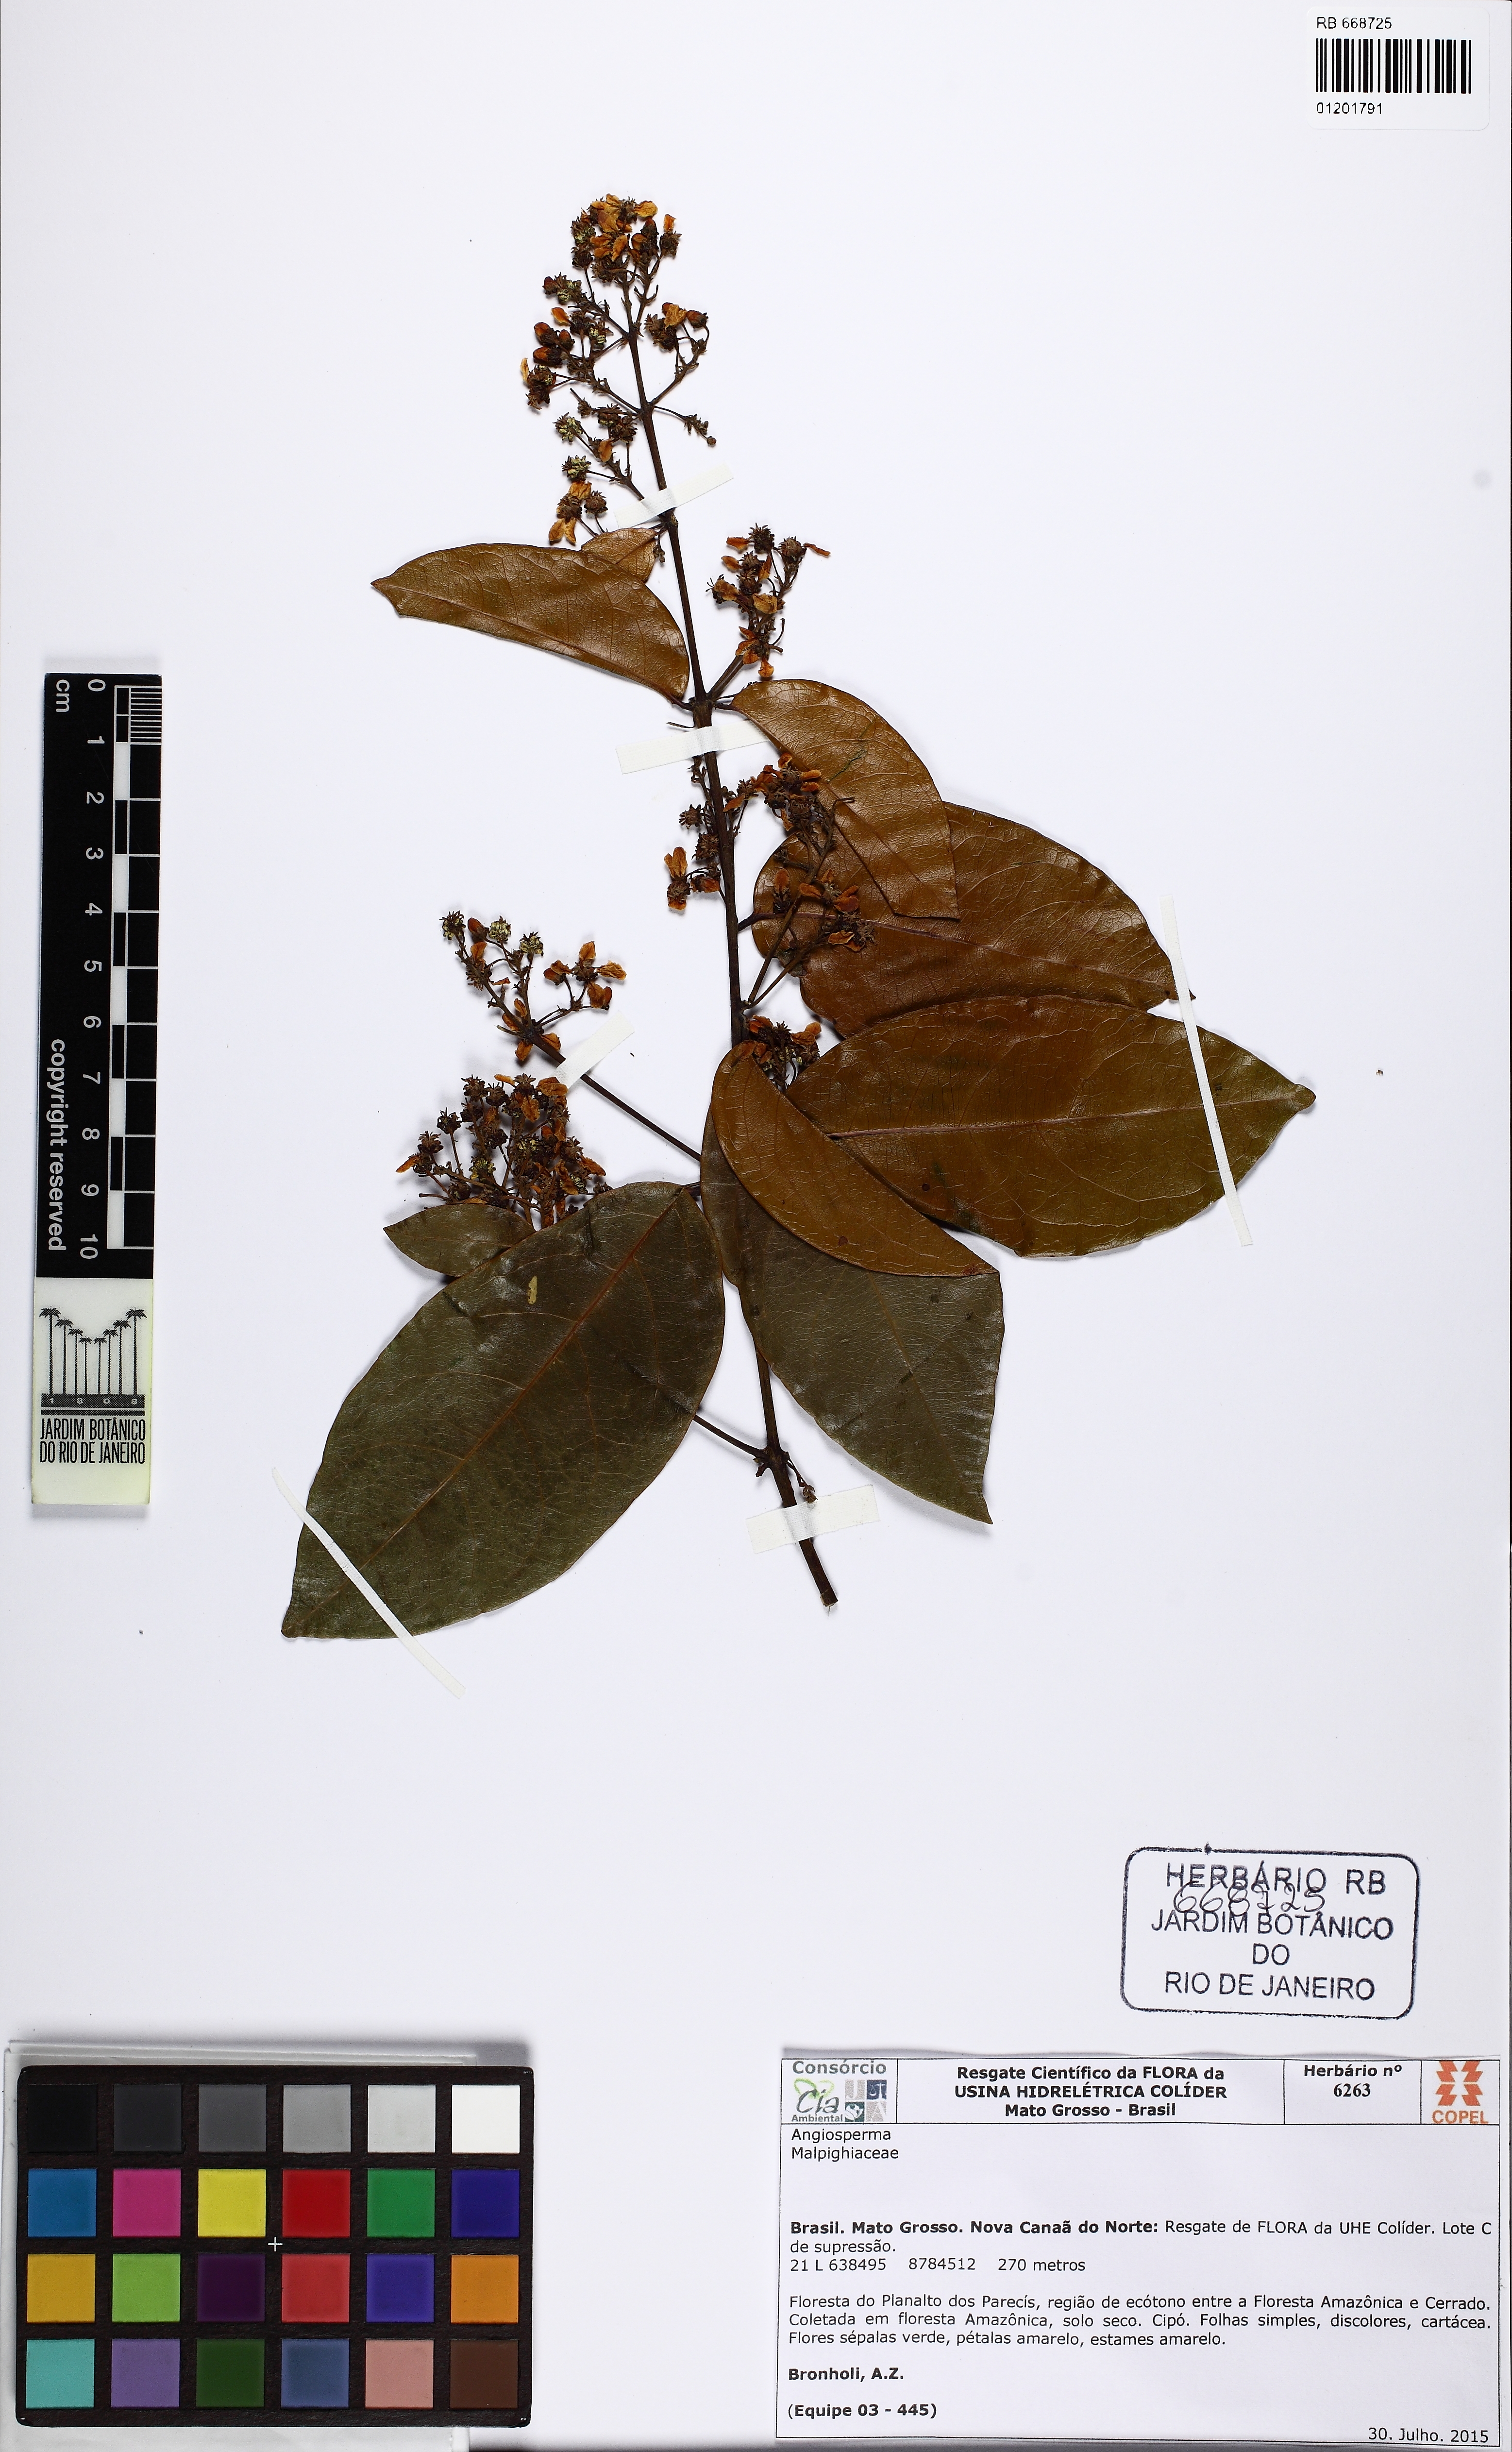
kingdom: Plantae
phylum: Tracheophyta
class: Magnoliopsida
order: Malpighiales
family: Malpighiaceae
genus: Niedenzuella
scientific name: Niedenzuella lasiandra
